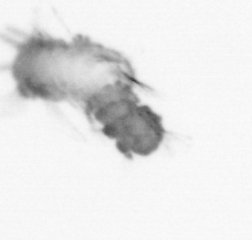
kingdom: Animalia
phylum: Arthropoda
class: Copepoda
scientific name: Copepoda
